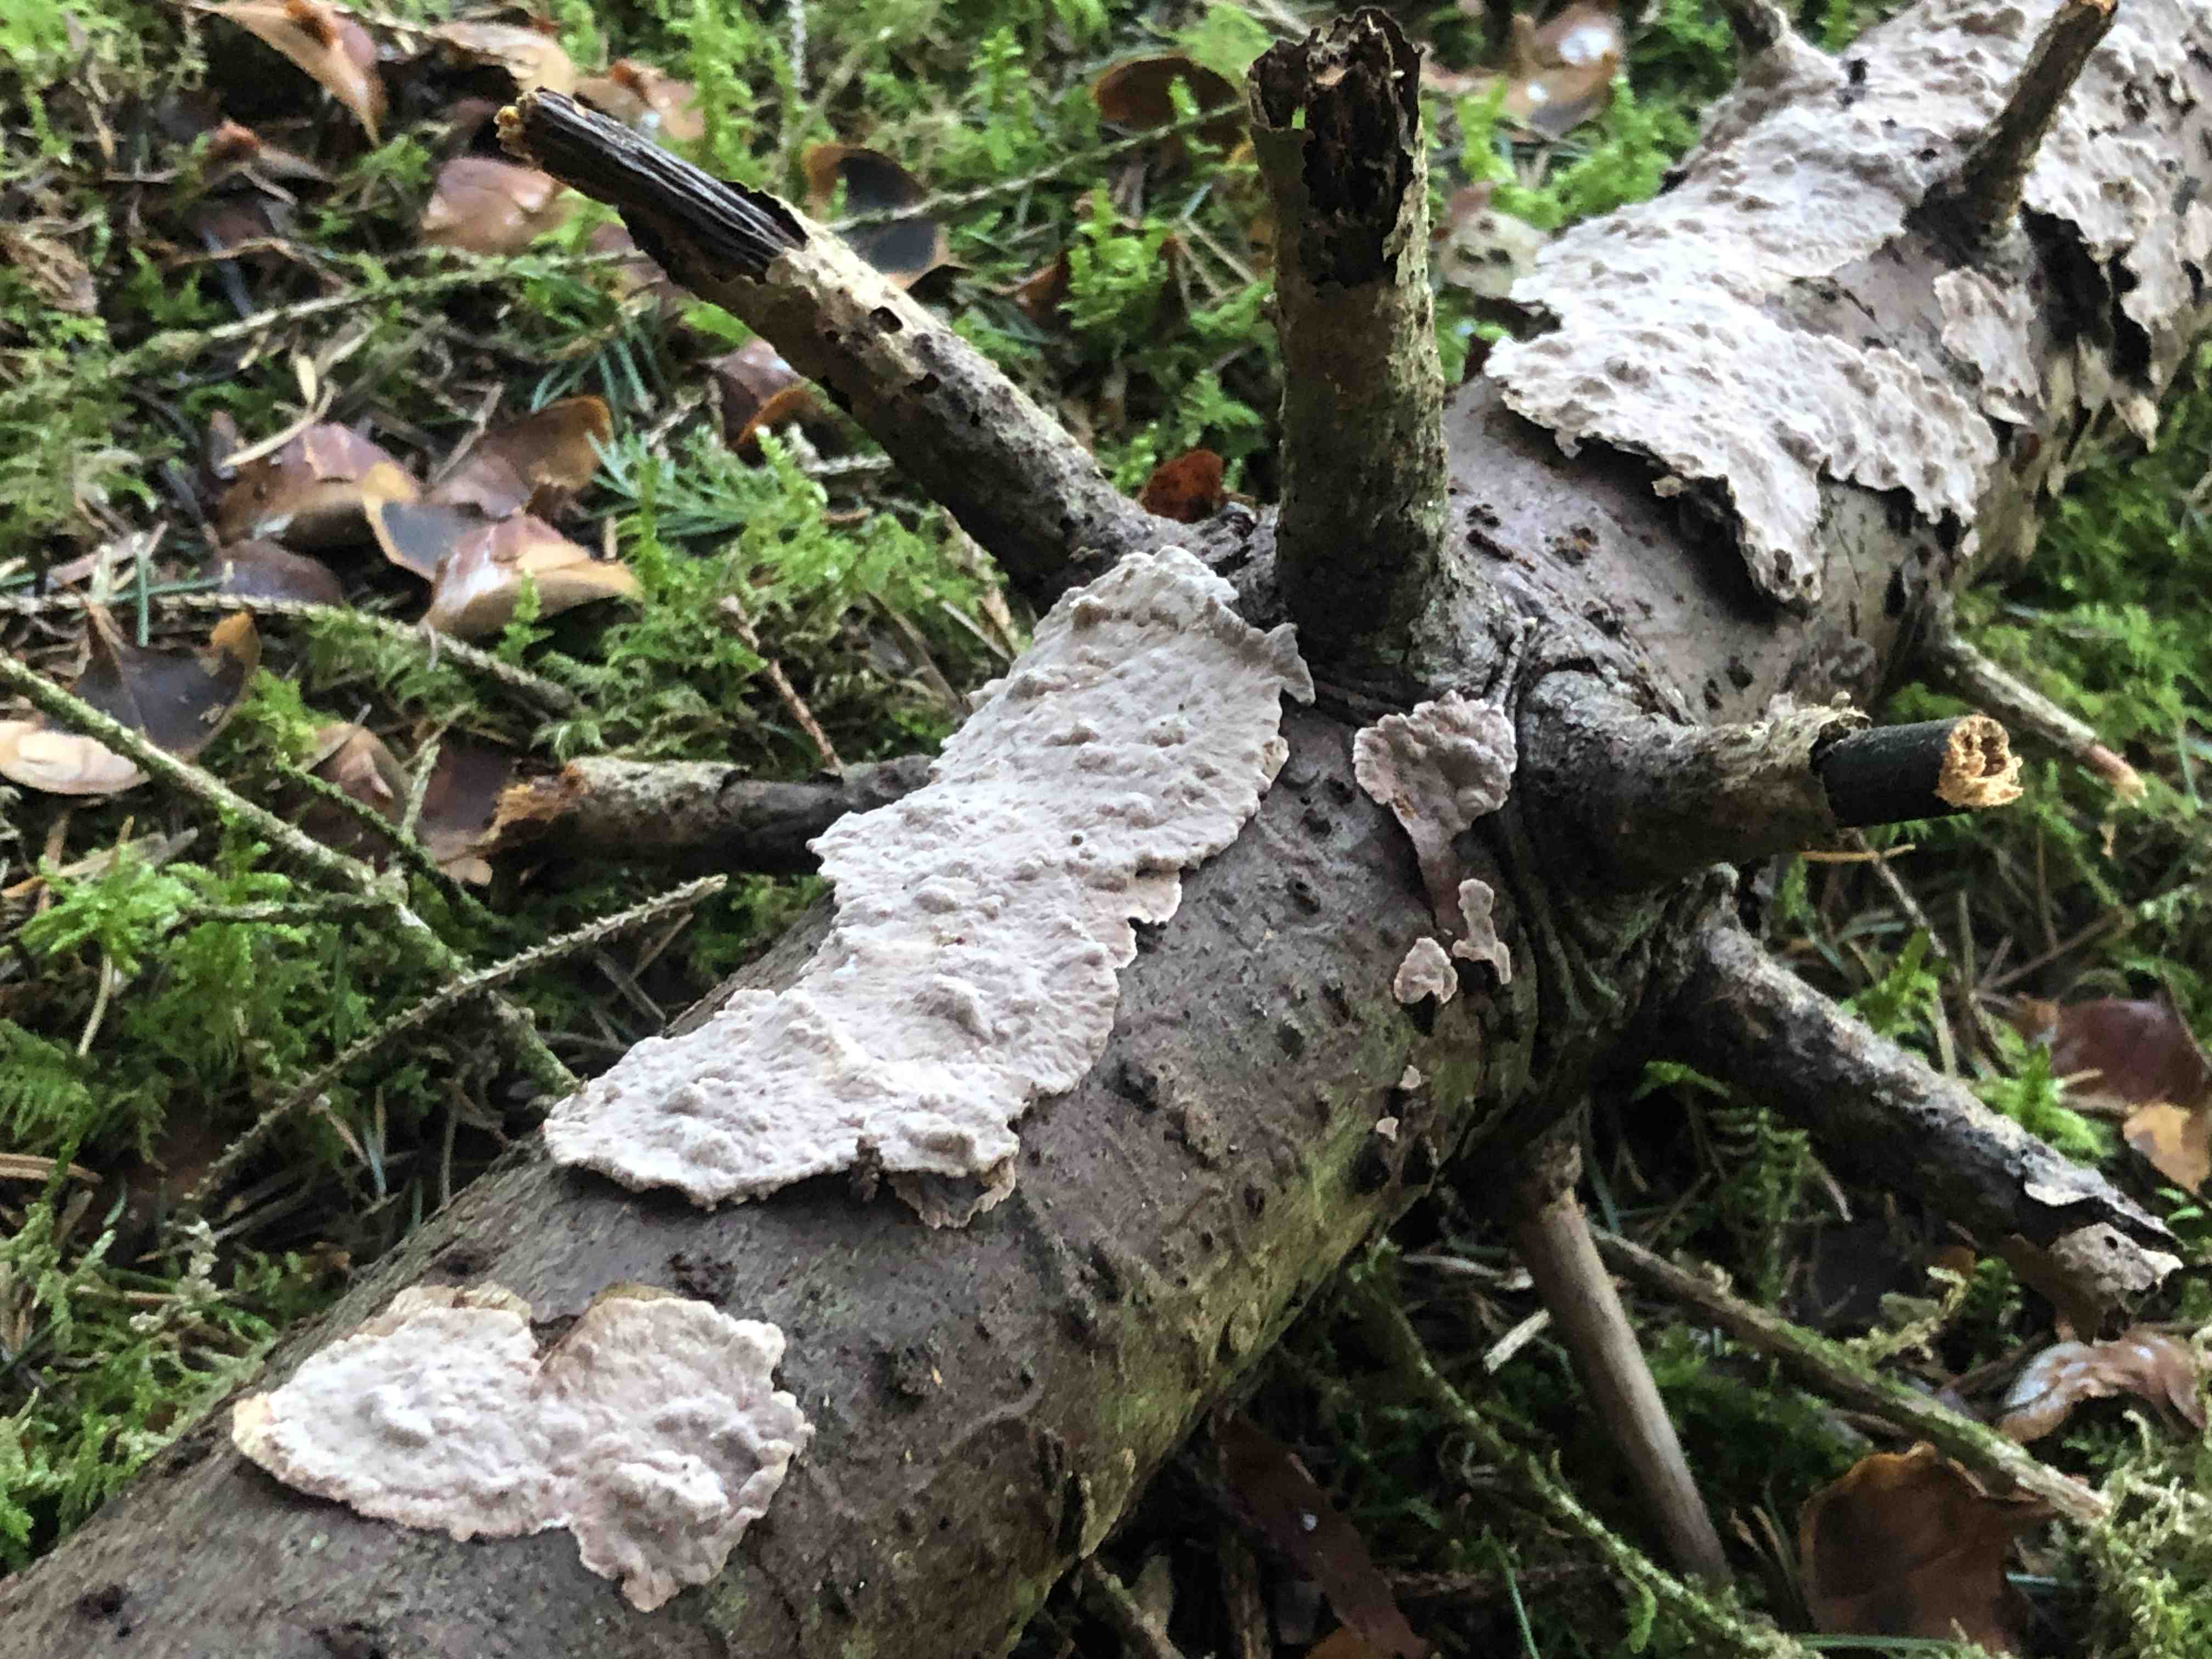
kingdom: Fungi
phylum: Basidiomycota
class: Agaricomycetes
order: Russulales
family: Echinodontiaceae
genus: Amylostereum
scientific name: Amylostereum chailletii
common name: gran-lædersvamp
